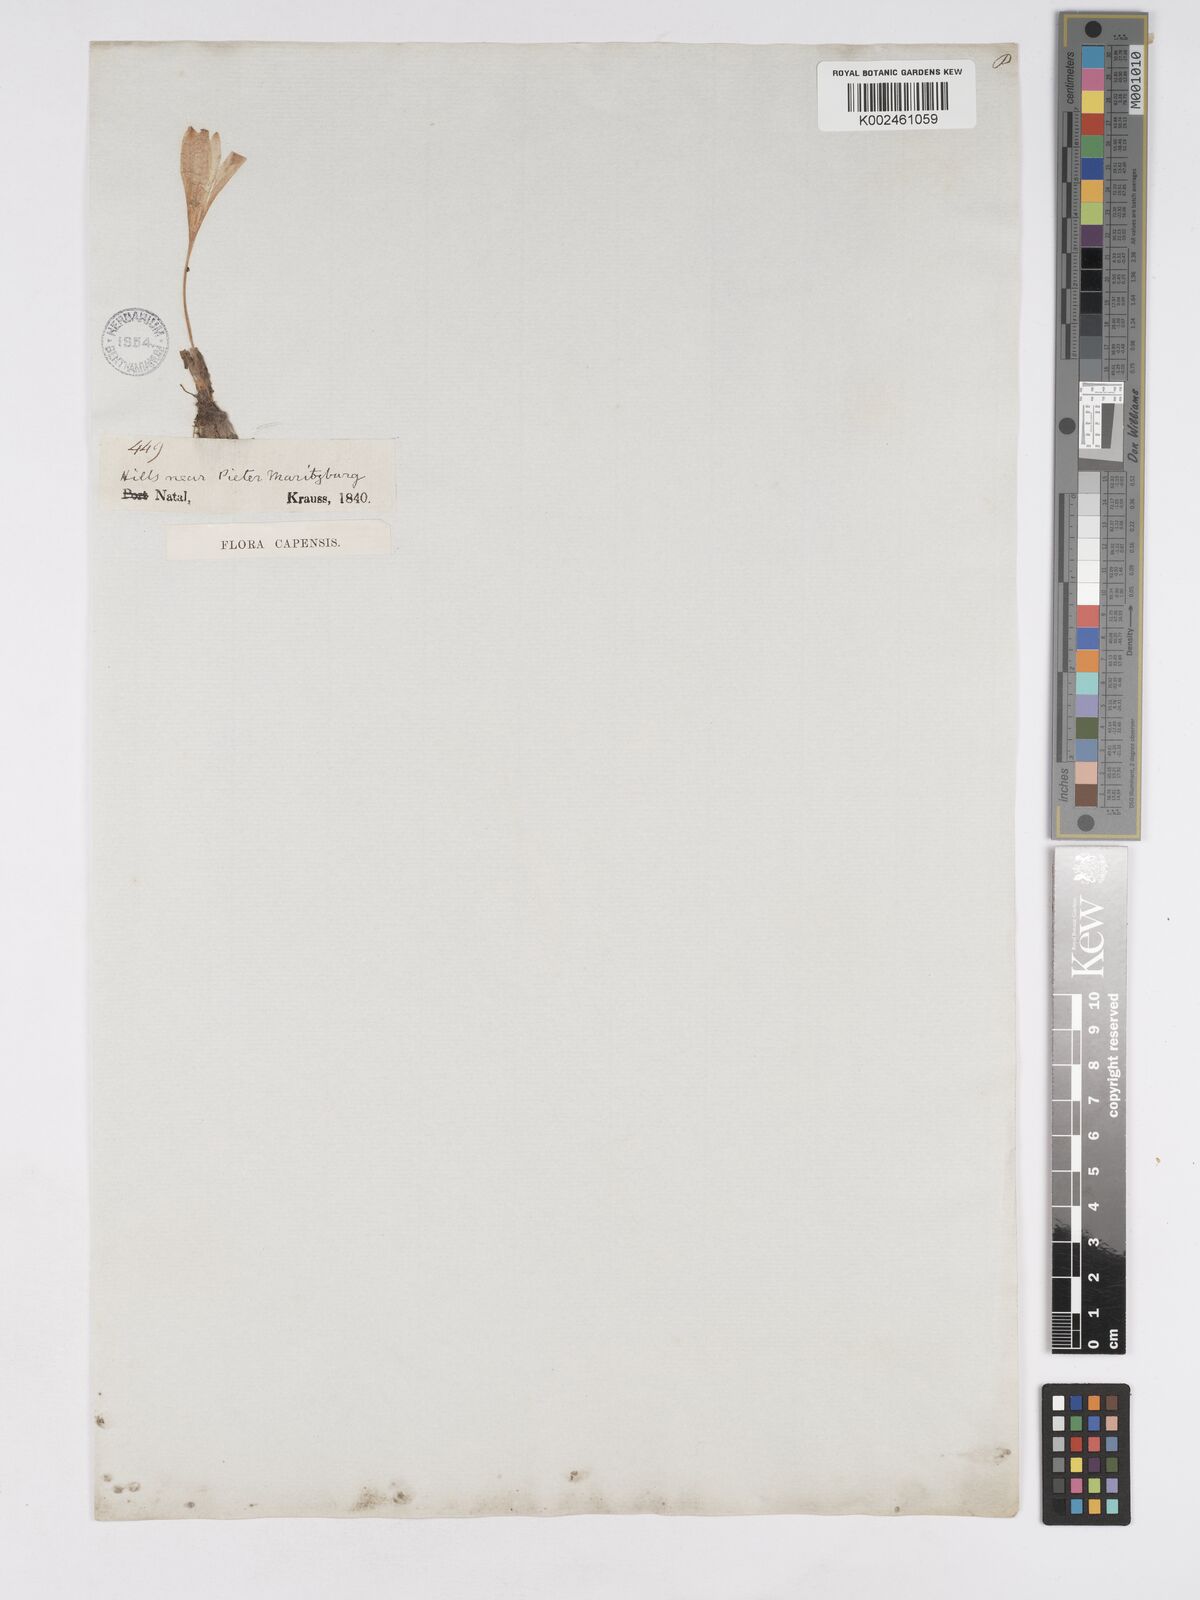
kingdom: Plantae
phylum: Tracheophyta
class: Liliopsida
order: Asparagales
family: Amaryllidaceae
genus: Apodolirion
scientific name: Apodolirion buchananii
